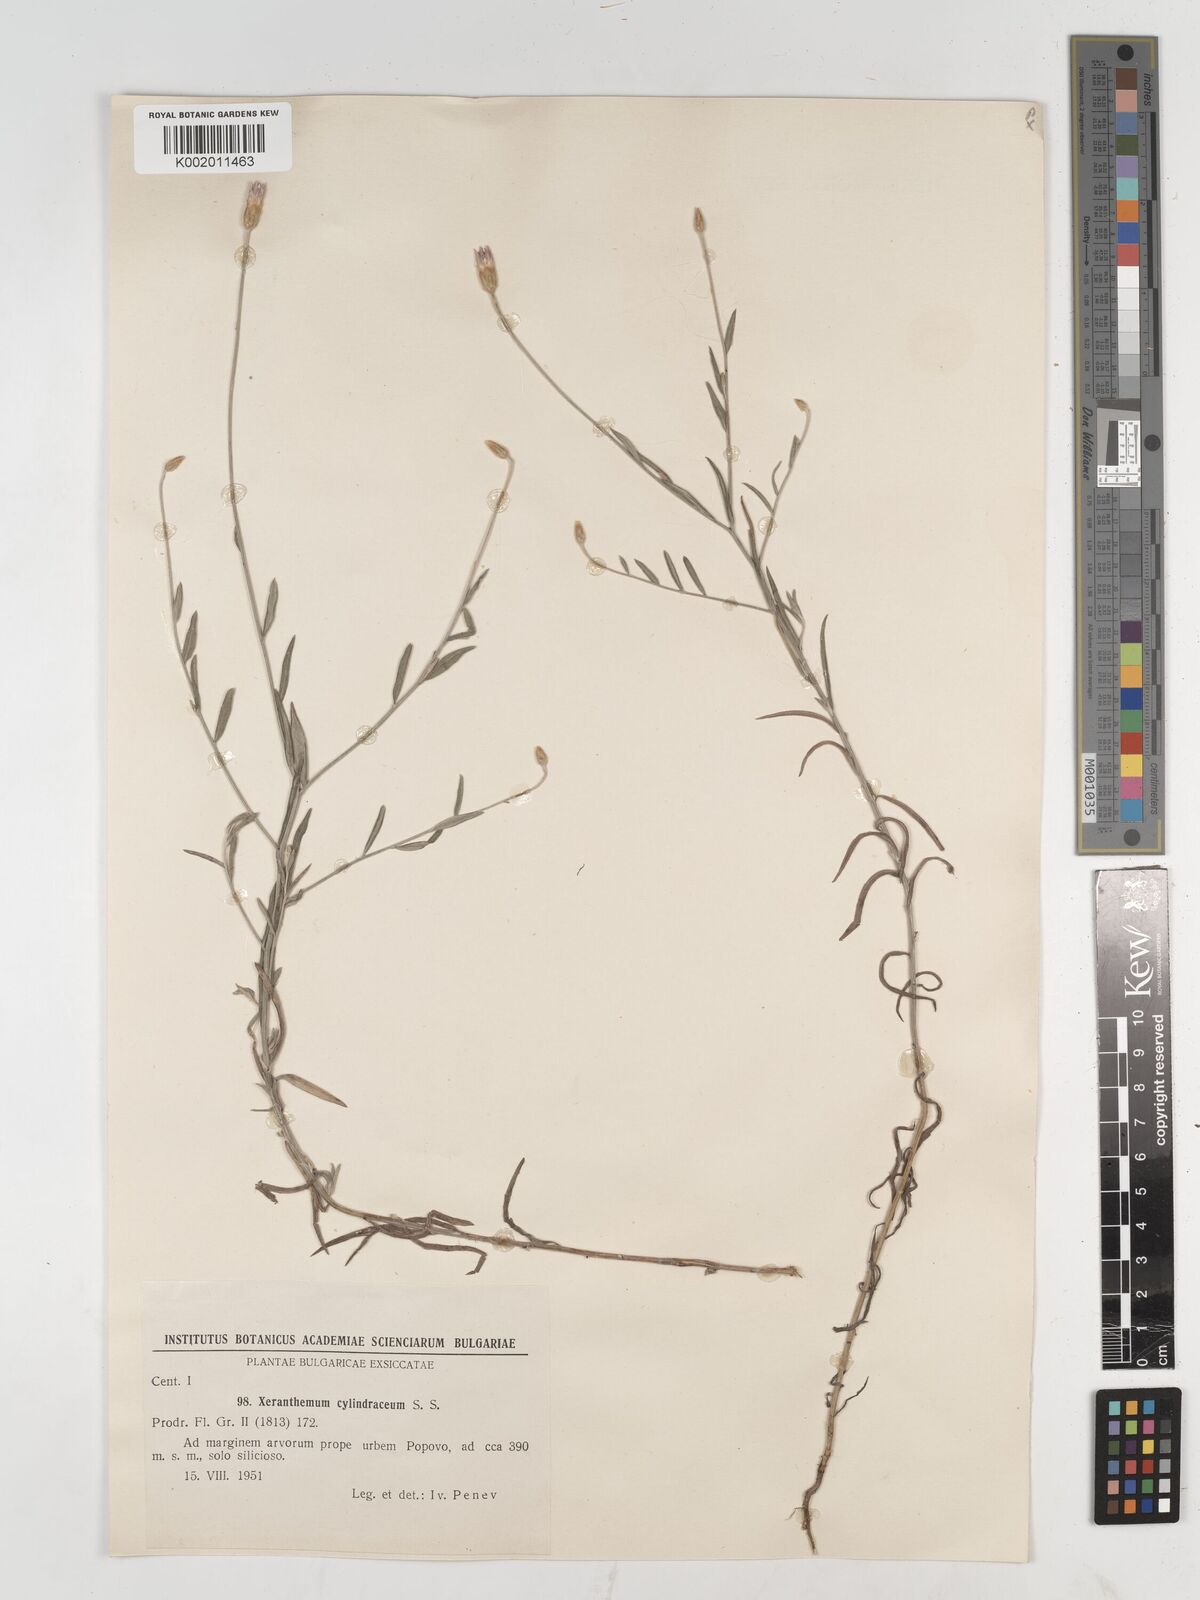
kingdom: Plantae
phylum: Tracheophyta
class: Magnoliopsida
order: Asterales
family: Asteraceae
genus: Xeranthemum
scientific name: Xeranthemum cylindraceum
